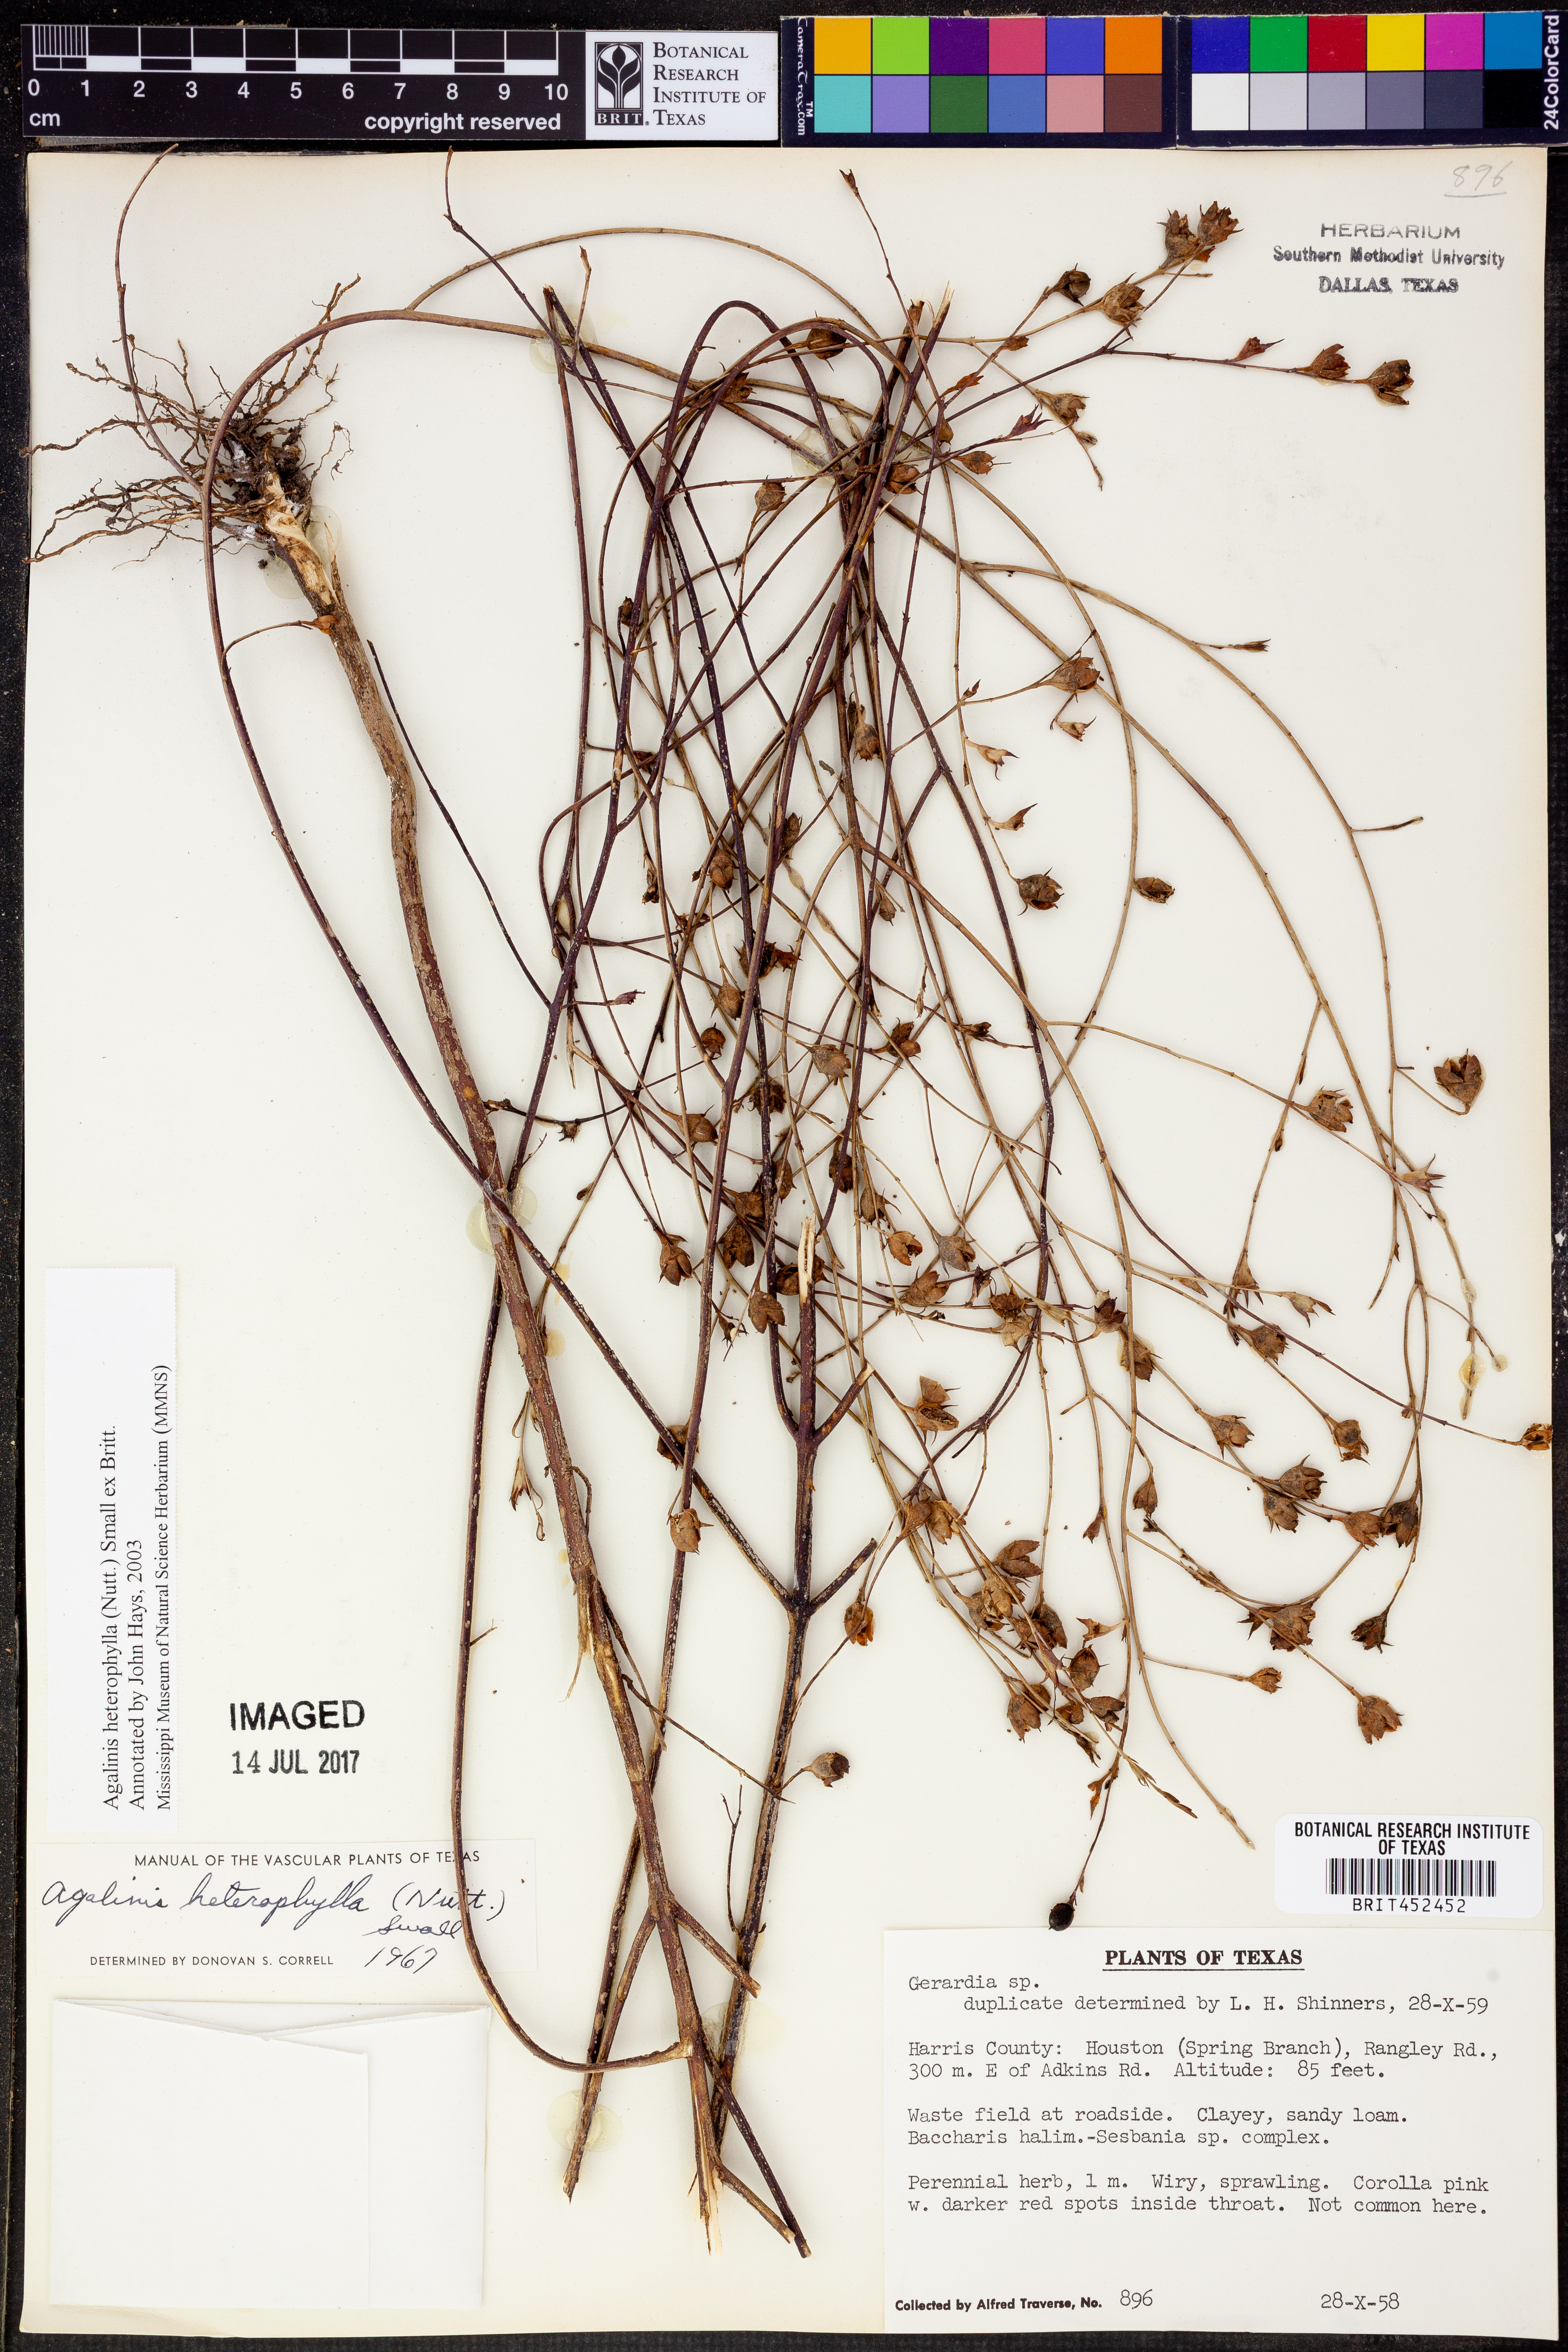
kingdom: Plantae
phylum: Tracheophyta
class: Magnoliopsida
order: Lamiales
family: Orobanchaceae
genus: Agalinis
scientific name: Agalinis heterophylla
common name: Prairie agalinis
